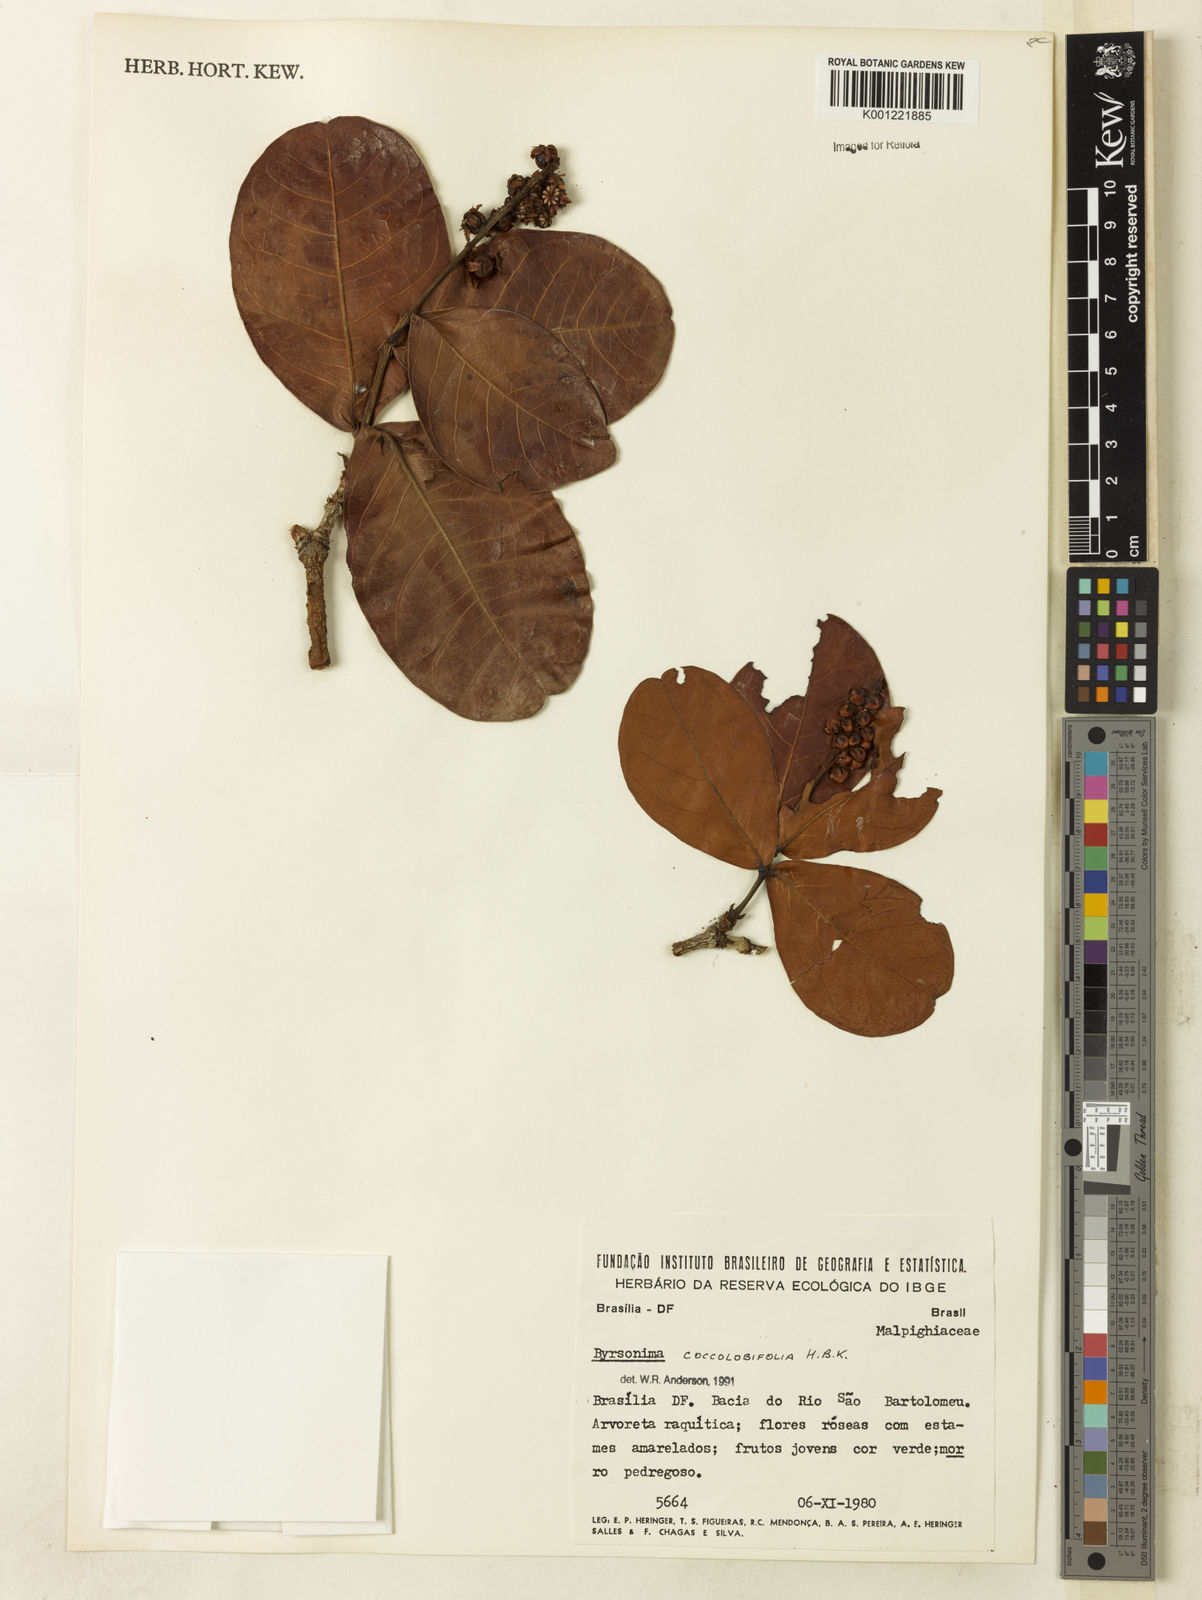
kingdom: Plantae
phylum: Tracheophyta
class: Magnoliopsida
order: Malpighiales
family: Malpighiaceae
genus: Byrsonima
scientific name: Byrsonima coccolobifolia
